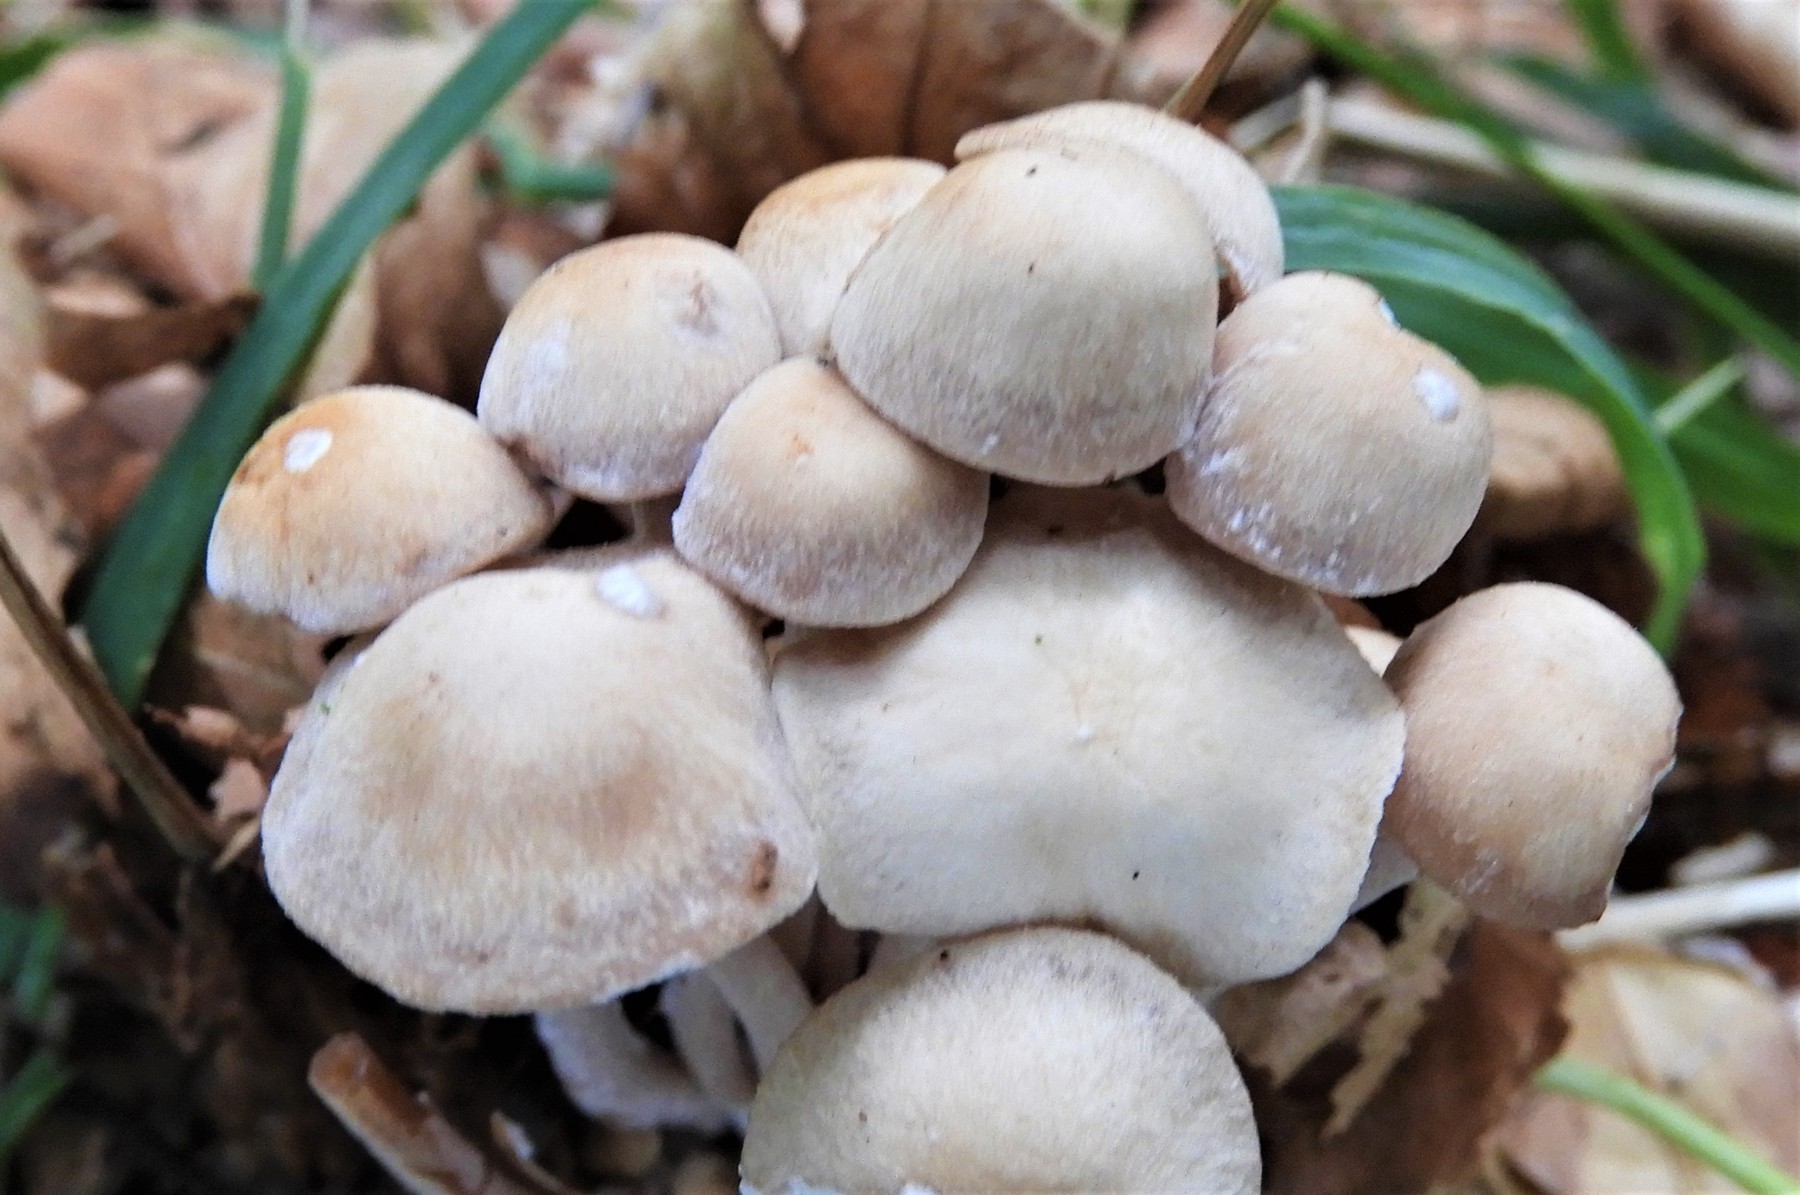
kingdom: Fungi
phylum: Basidiomycota
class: Agaricomycetes
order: Agaricales
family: Omphalotaceae
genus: Collybiopsis
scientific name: Collybiopsis confluens
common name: knippe-fladhat
